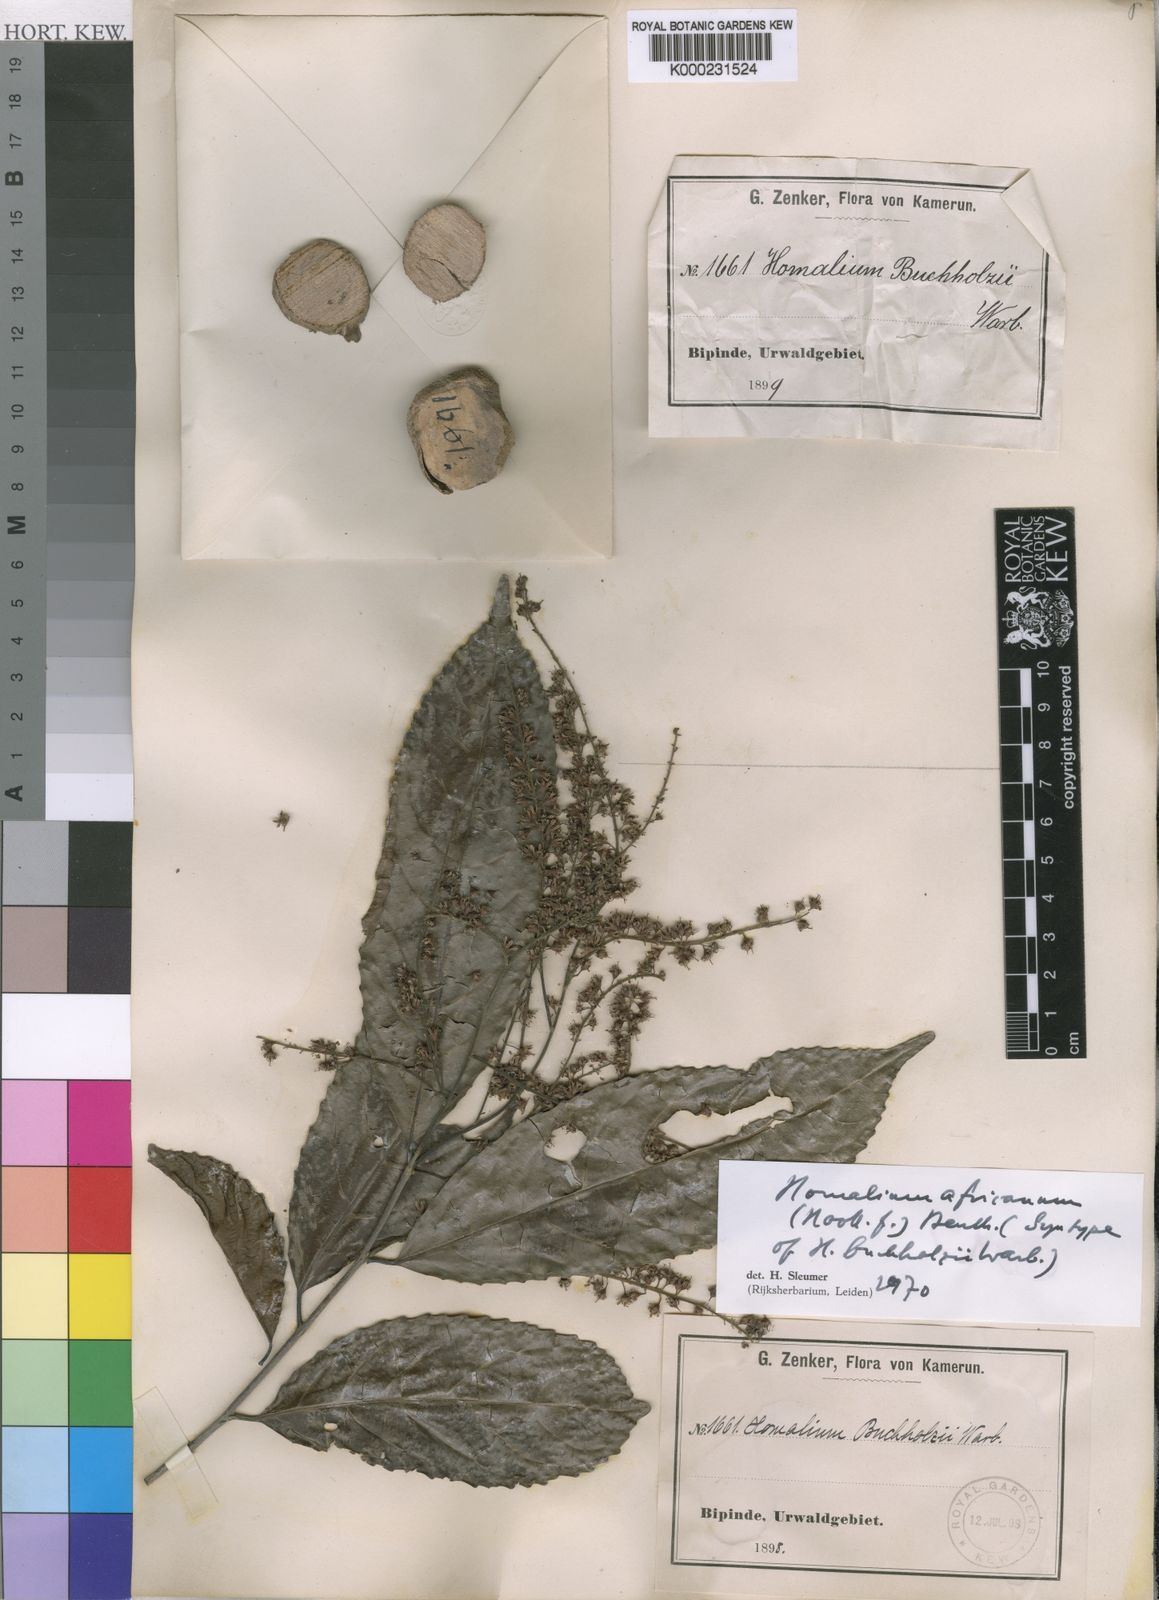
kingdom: Plantae
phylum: Tracheophyta
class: Magnoliopsida
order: Malpighiales
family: Salicaceae
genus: Homalium
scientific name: Homalium africanum
